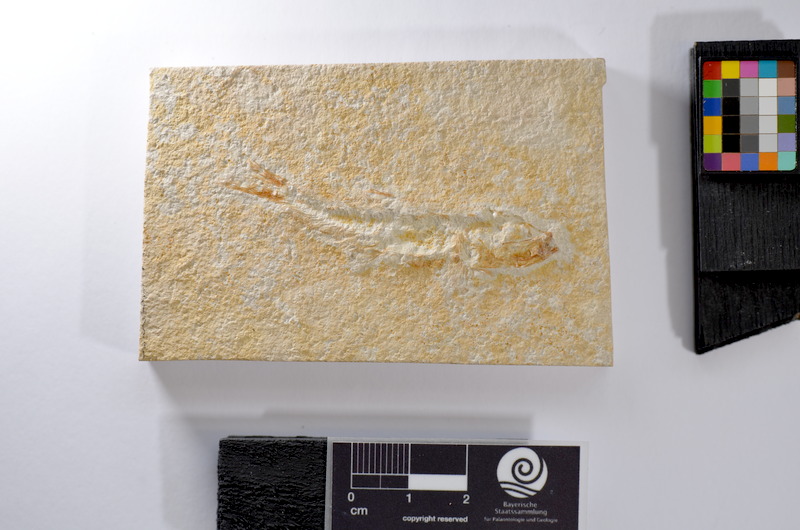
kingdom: Animalia
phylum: Chordata
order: Salmoniformes
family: Orthogonikleithridae
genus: Leptolepides
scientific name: Leptolepides
